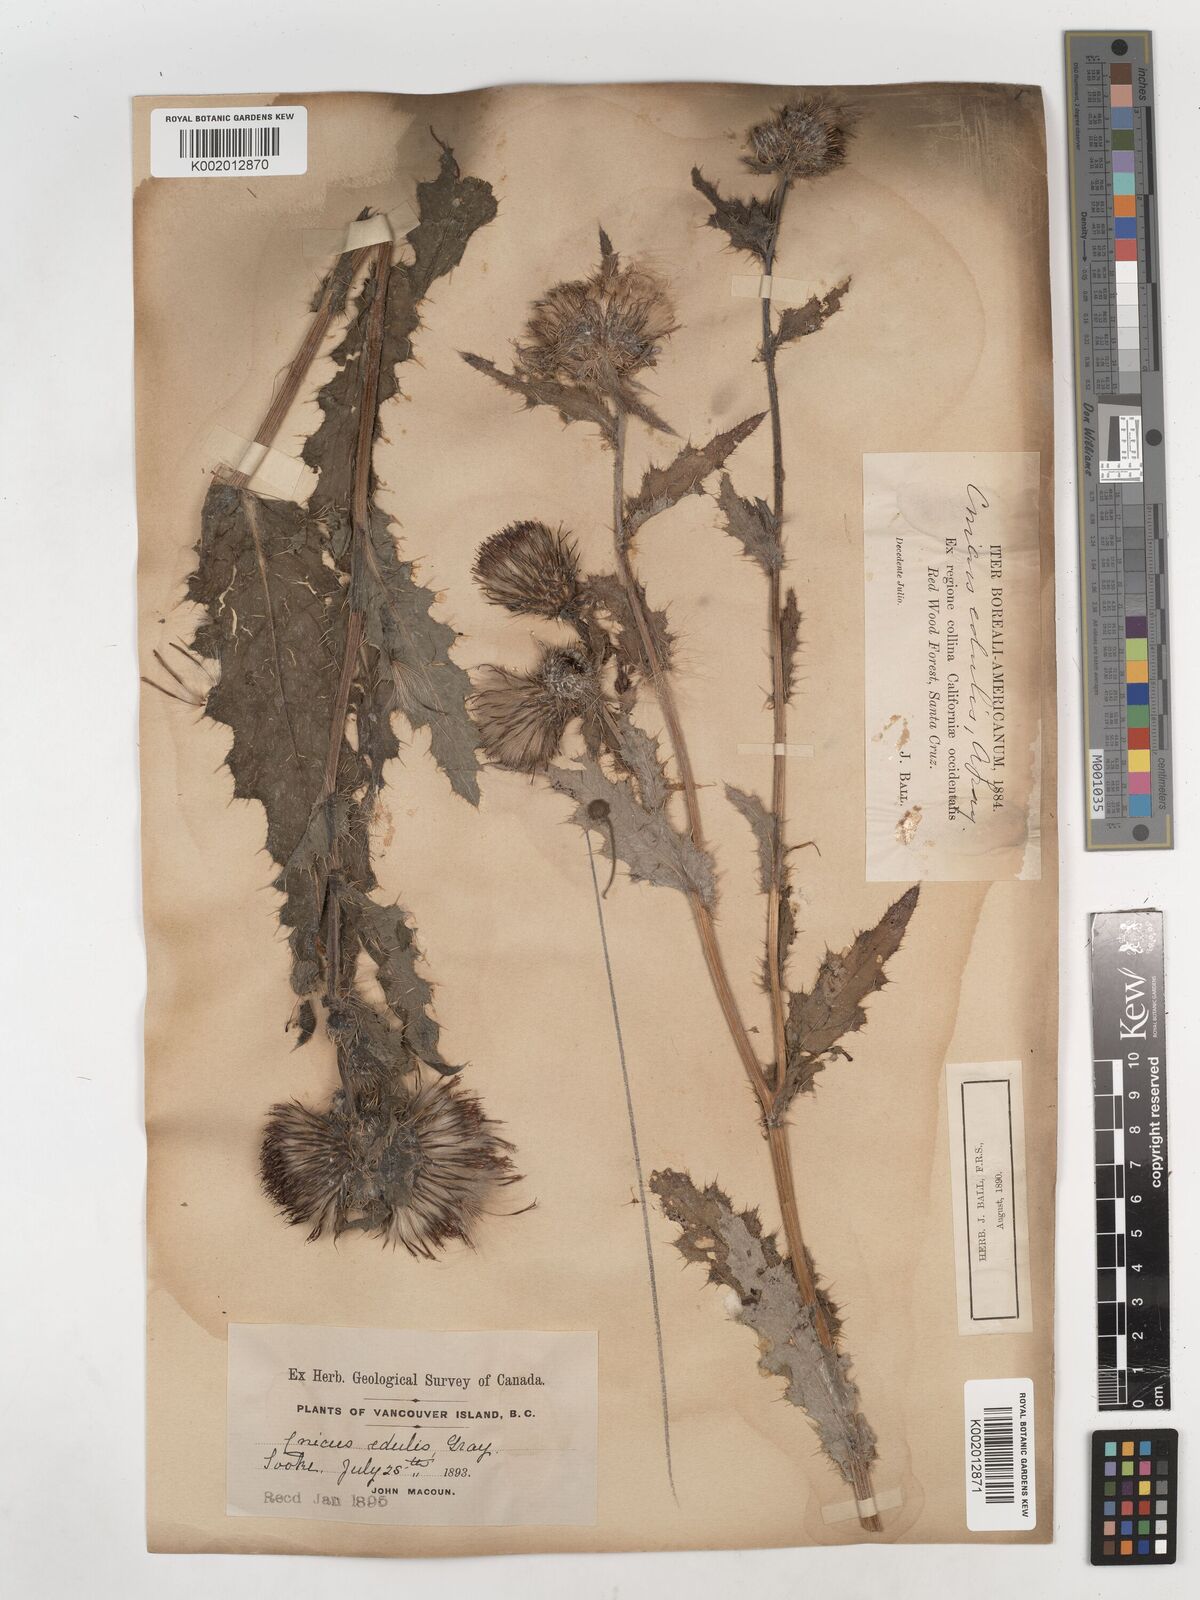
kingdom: Plantae
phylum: Tracheophyta
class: Magnoliopsida
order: Asterales
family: Asteraceae
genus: Cirsium
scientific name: Cirsium edule
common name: Indian thistle
